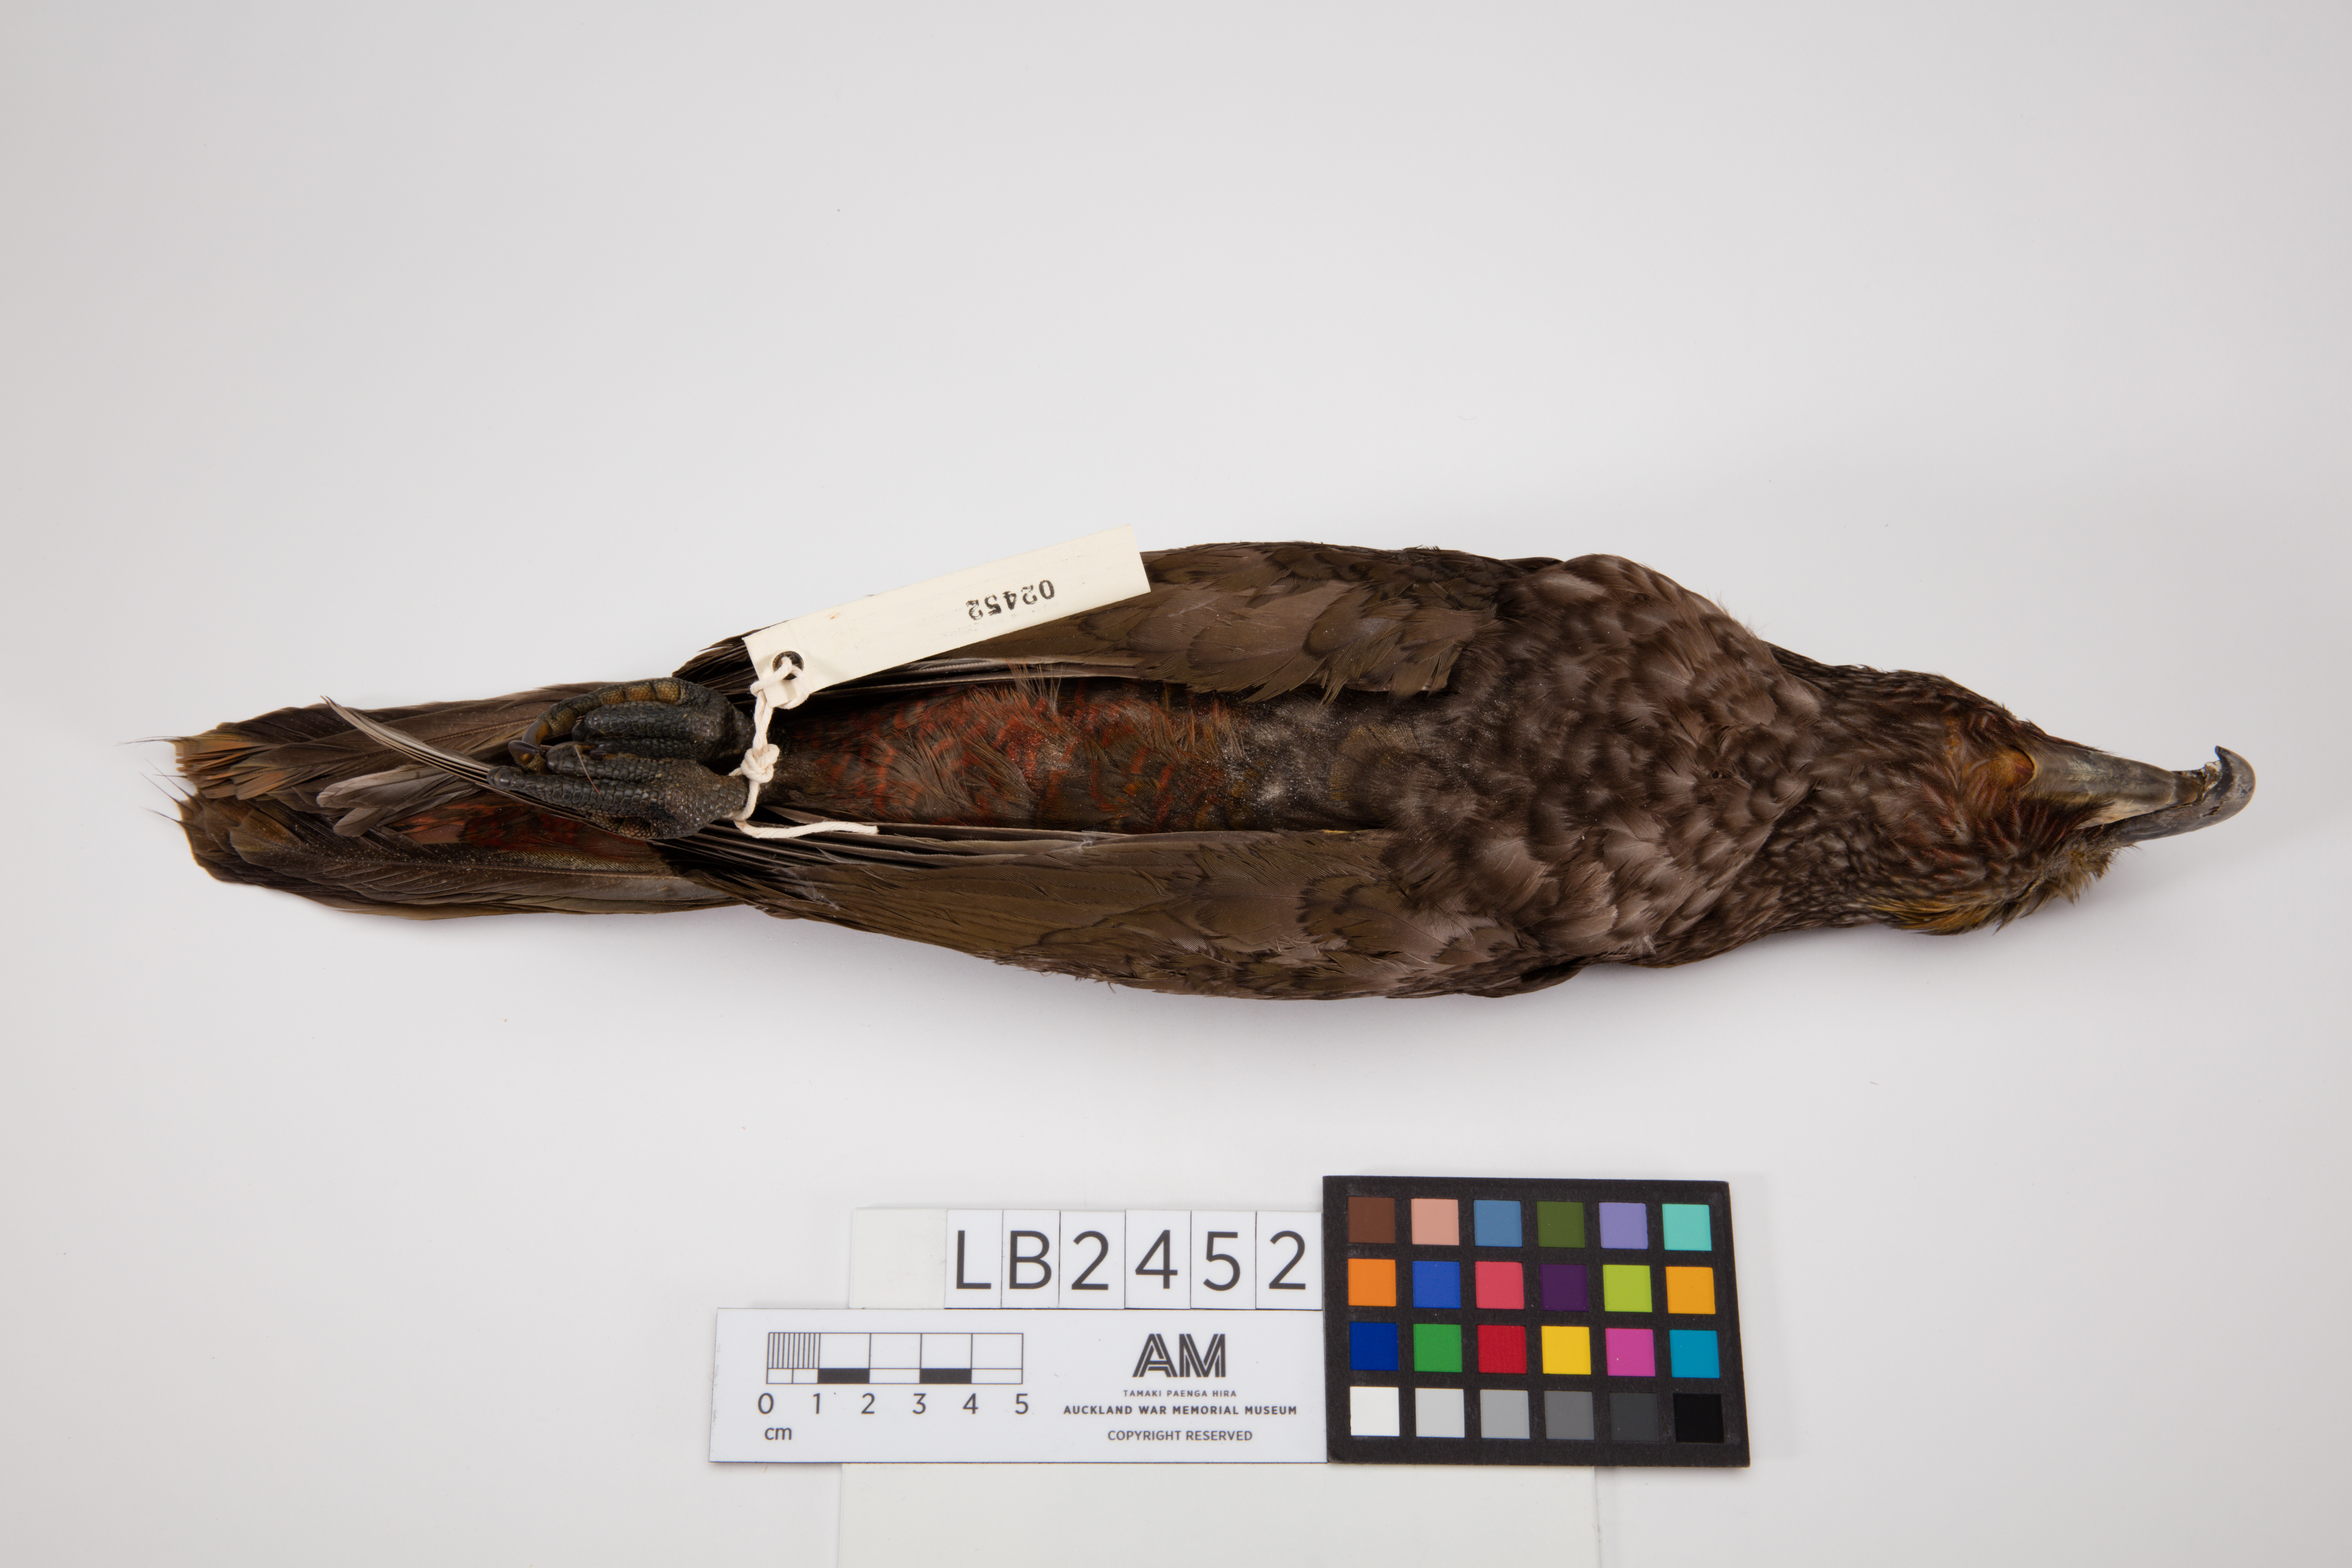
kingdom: Animalia
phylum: Chordata
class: Aves
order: Psittaciformes
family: Psittacidae
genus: Nestor
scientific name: Nestor meridionalis
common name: New zealand kaka
